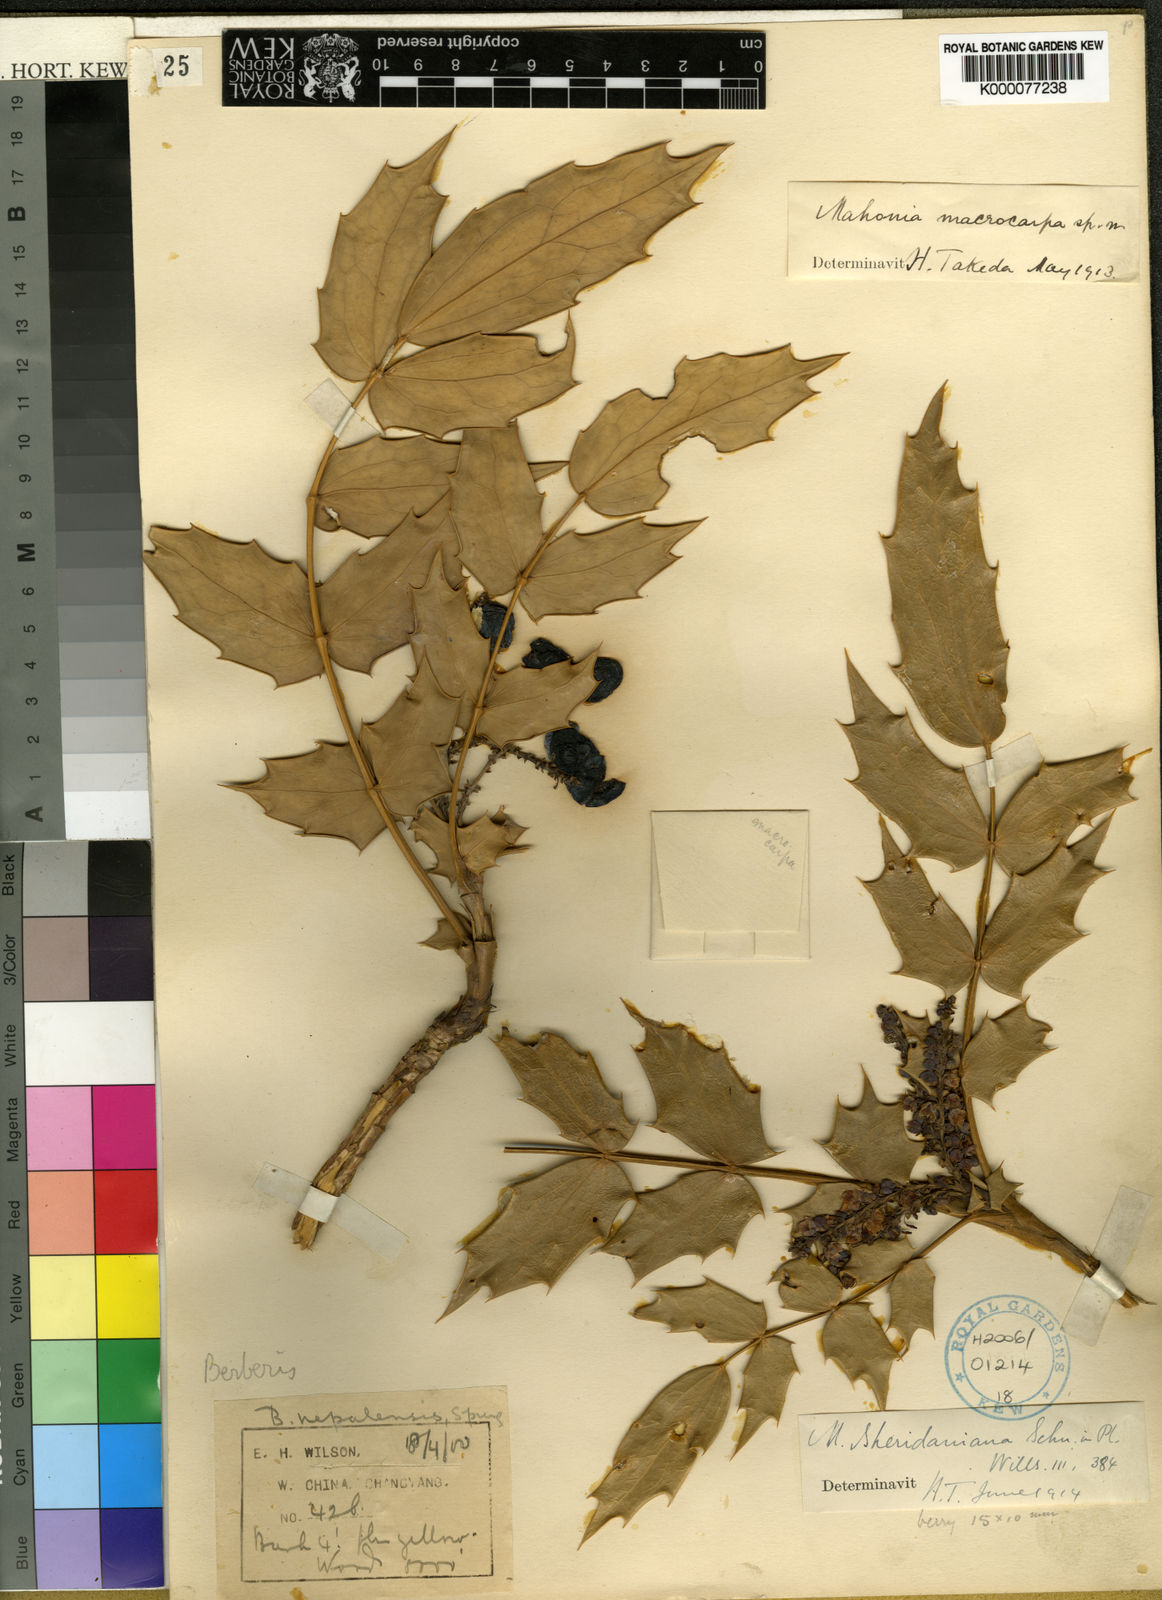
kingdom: Plantae
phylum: Tracheophyta
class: Magnoliopsida
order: Ranunculales
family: Berberidaceae
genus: Mahonia
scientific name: Mahonia sheridaniana
